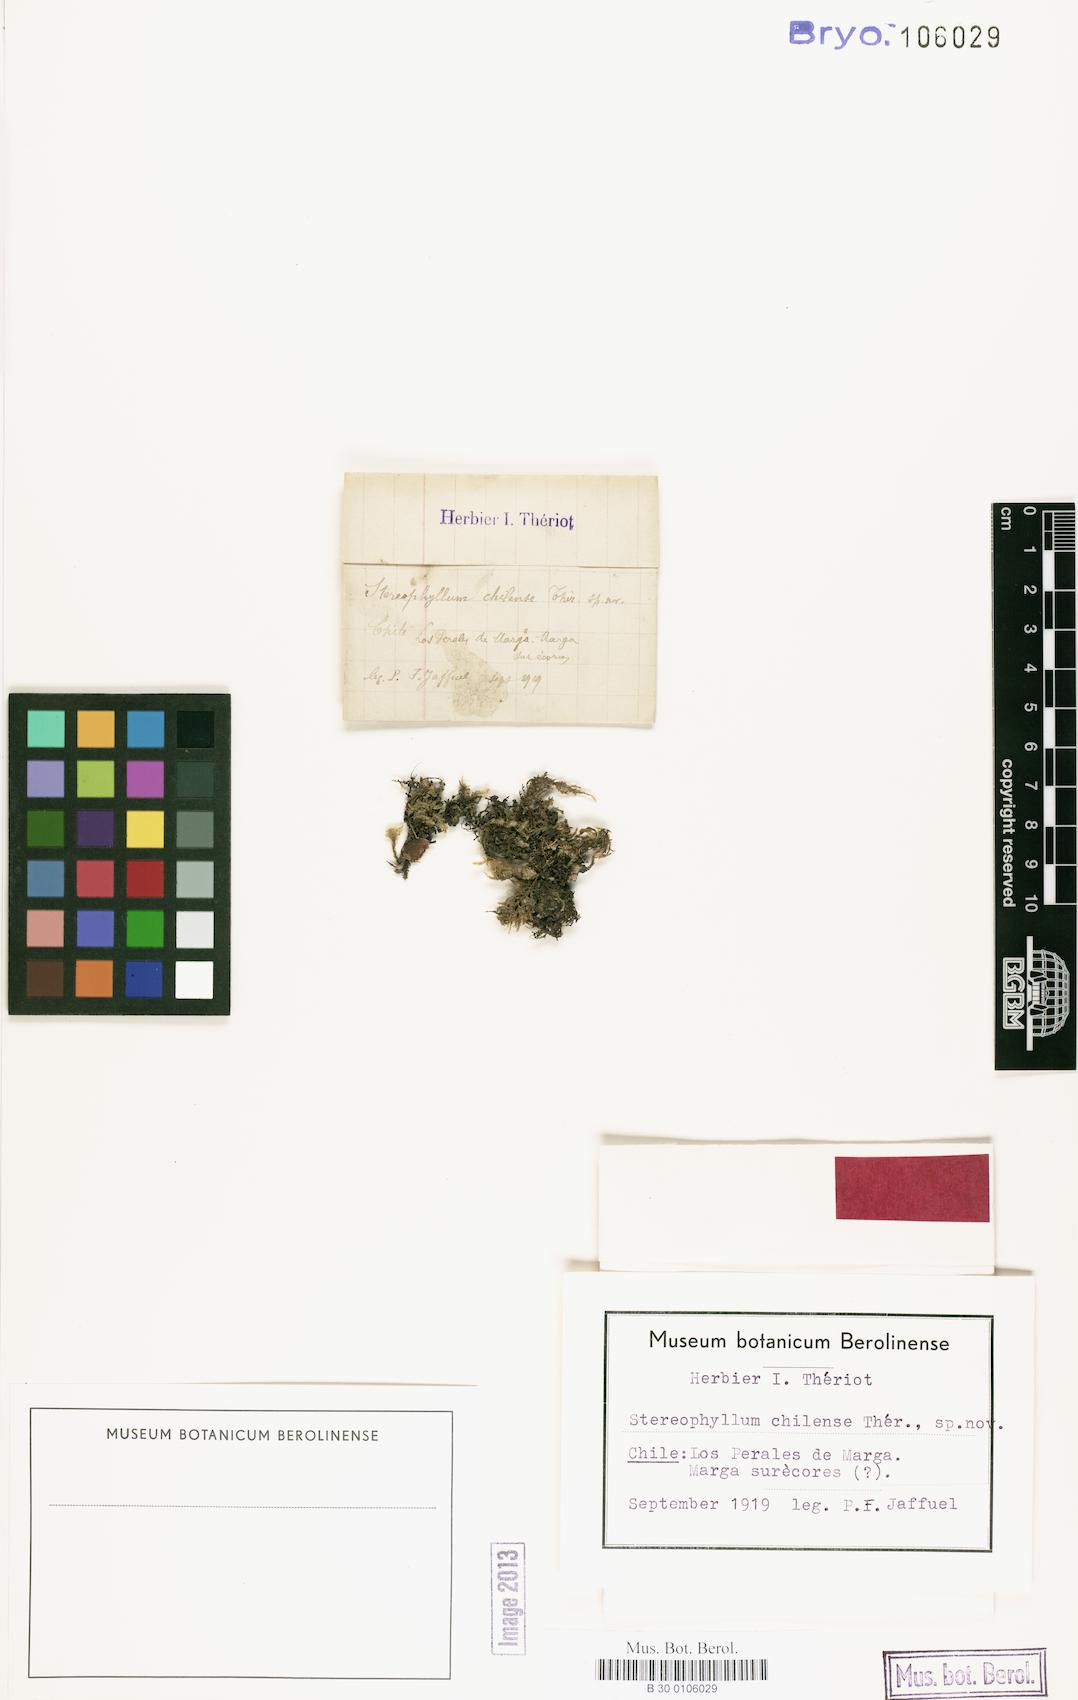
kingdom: Plantae
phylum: Bryophyta
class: Bryopsida
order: Hypnales
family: Plagiotheciaceae
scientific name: Plagiotheciaceae
